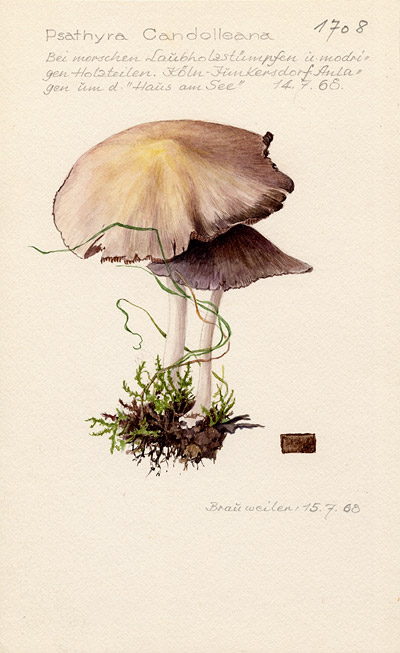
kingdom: Fungi
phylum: Basidiomycota
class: Agaricomycetes
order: Agaricales
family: Psathyrellaceae
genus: Candolleomyces
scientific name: Candolleomyces candolleanus
